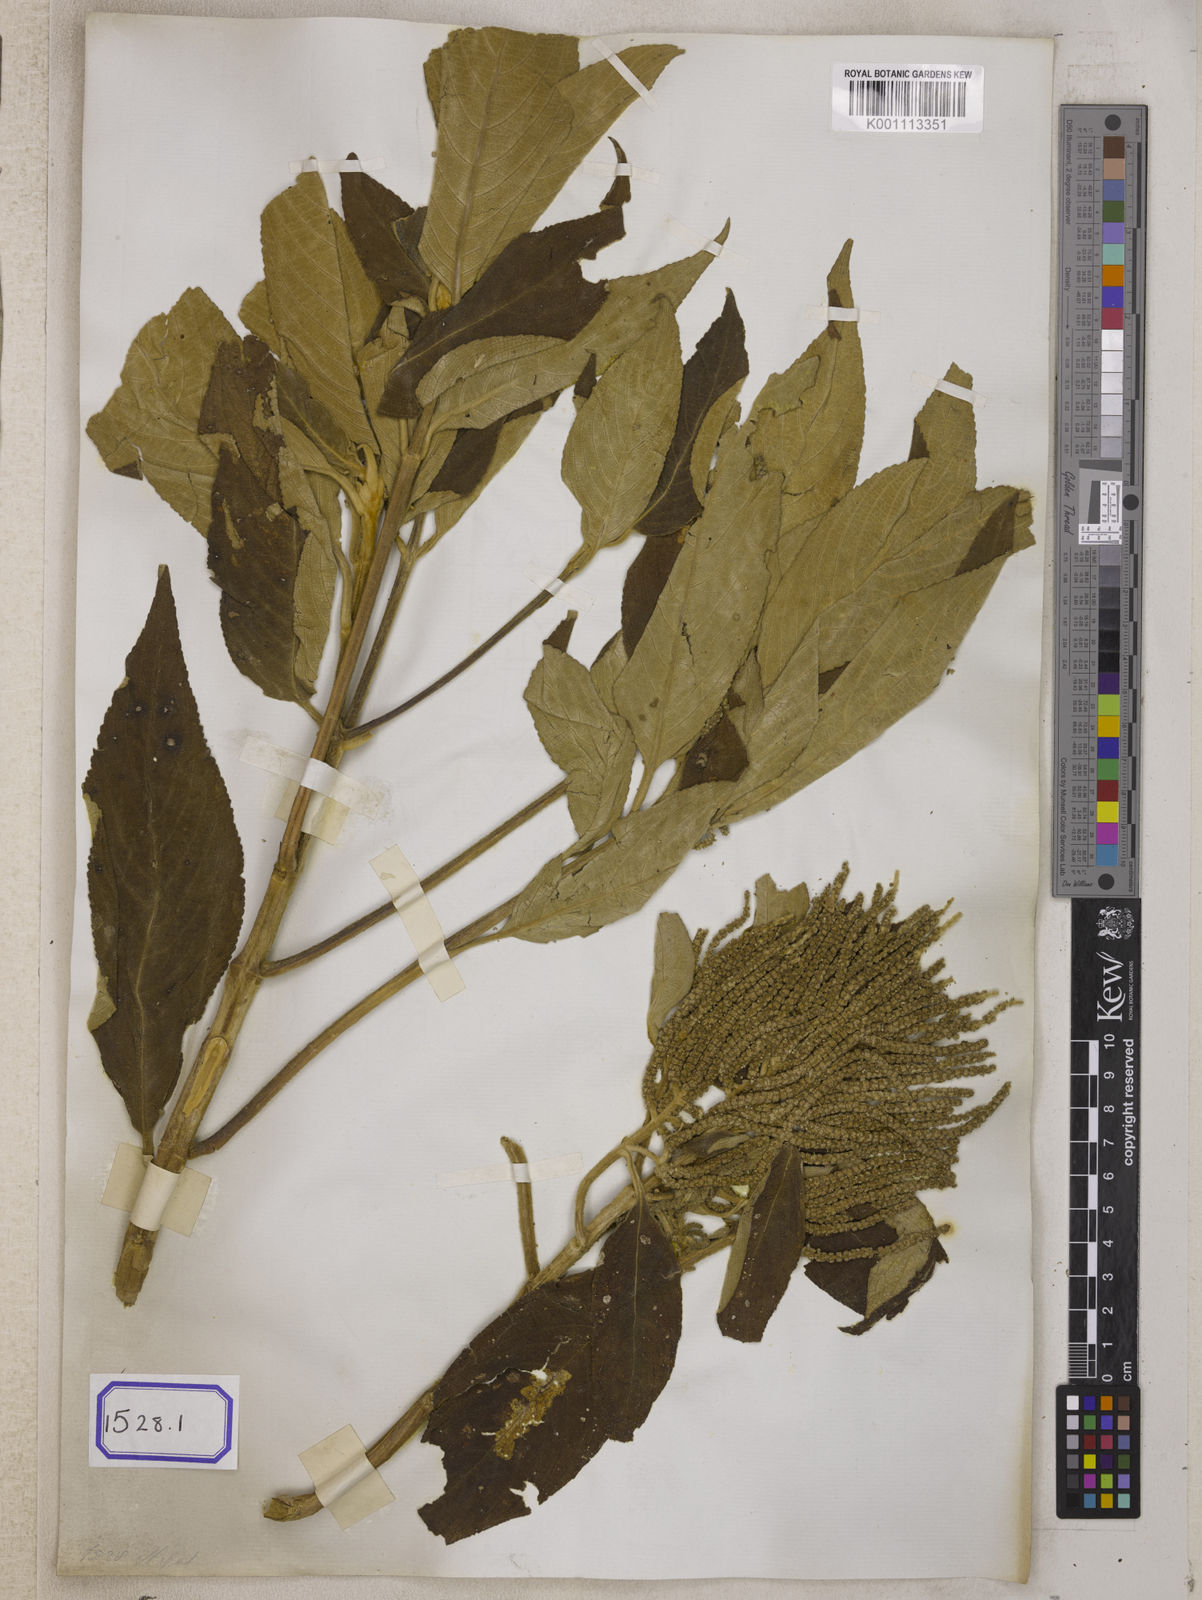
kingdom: Plantae
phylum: Tracheophyta
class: Magnoliopsida
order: Lamiales
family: Lamiaceae
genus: Colebrookea
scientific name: Colebrookea
